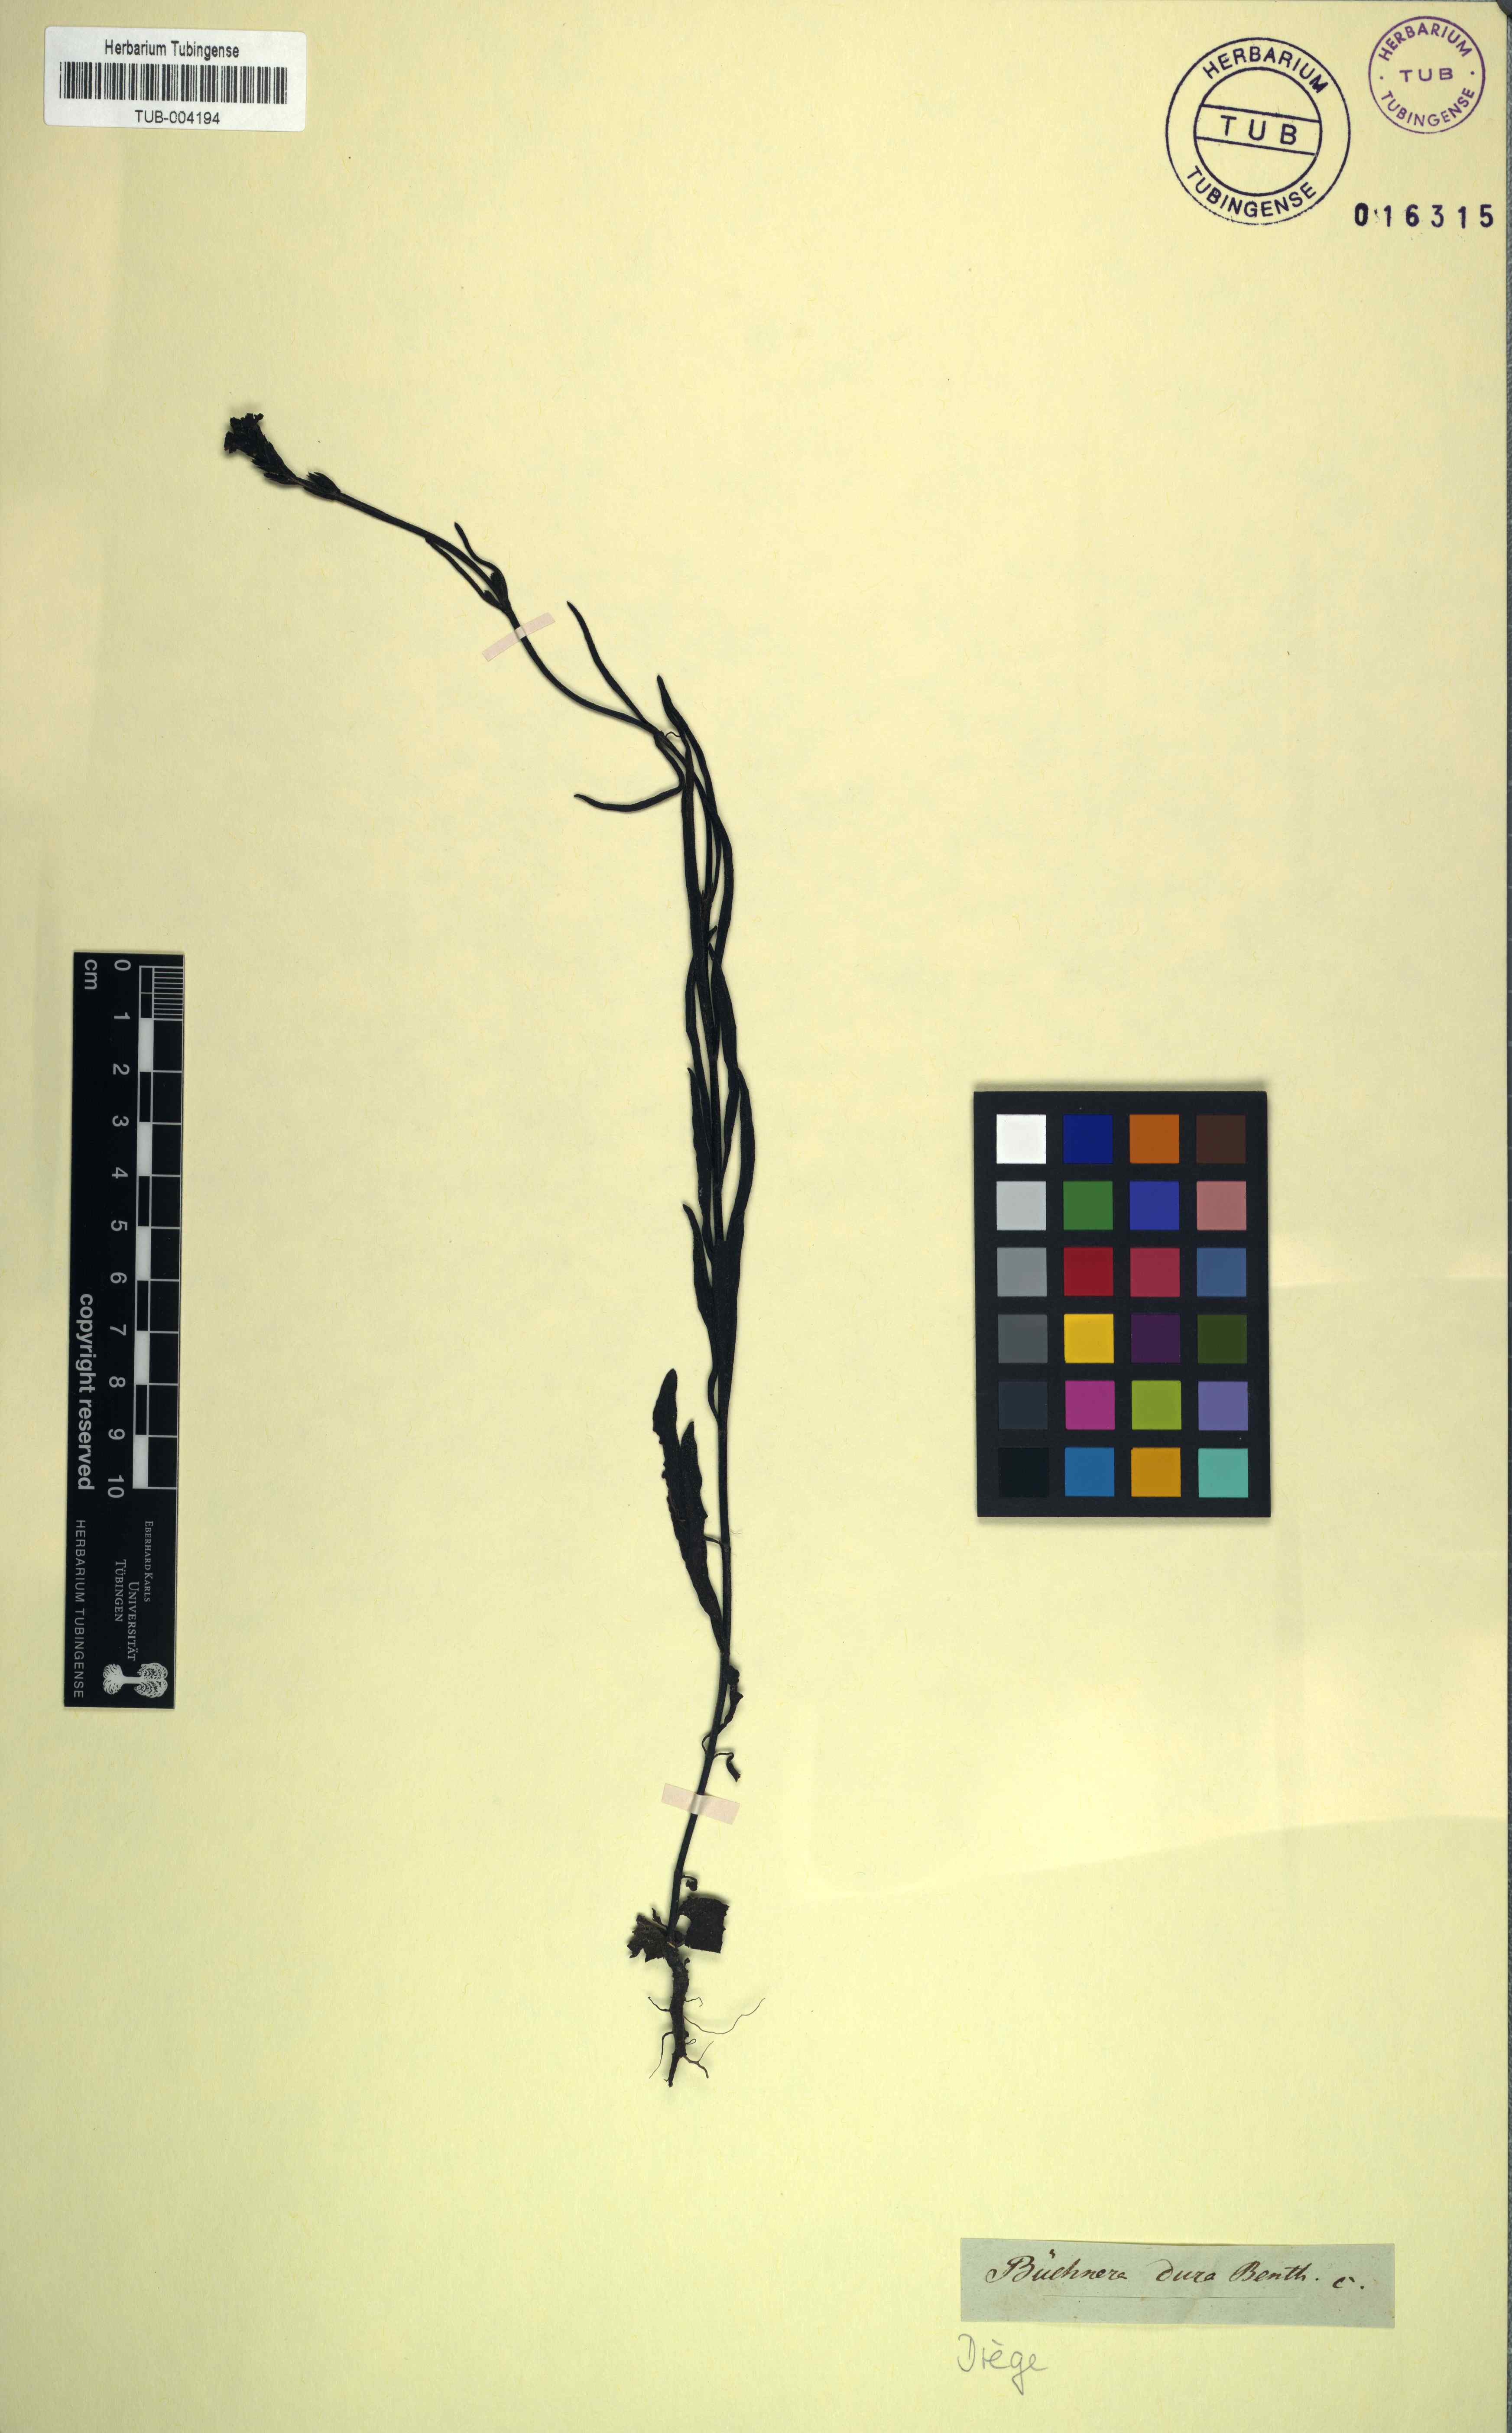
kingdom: Plantae
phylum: Tracheophyta
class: Magnoliopsida
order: Lamiales
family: Orobanchaceae
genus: Buchnera
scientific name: Buchnera dura
